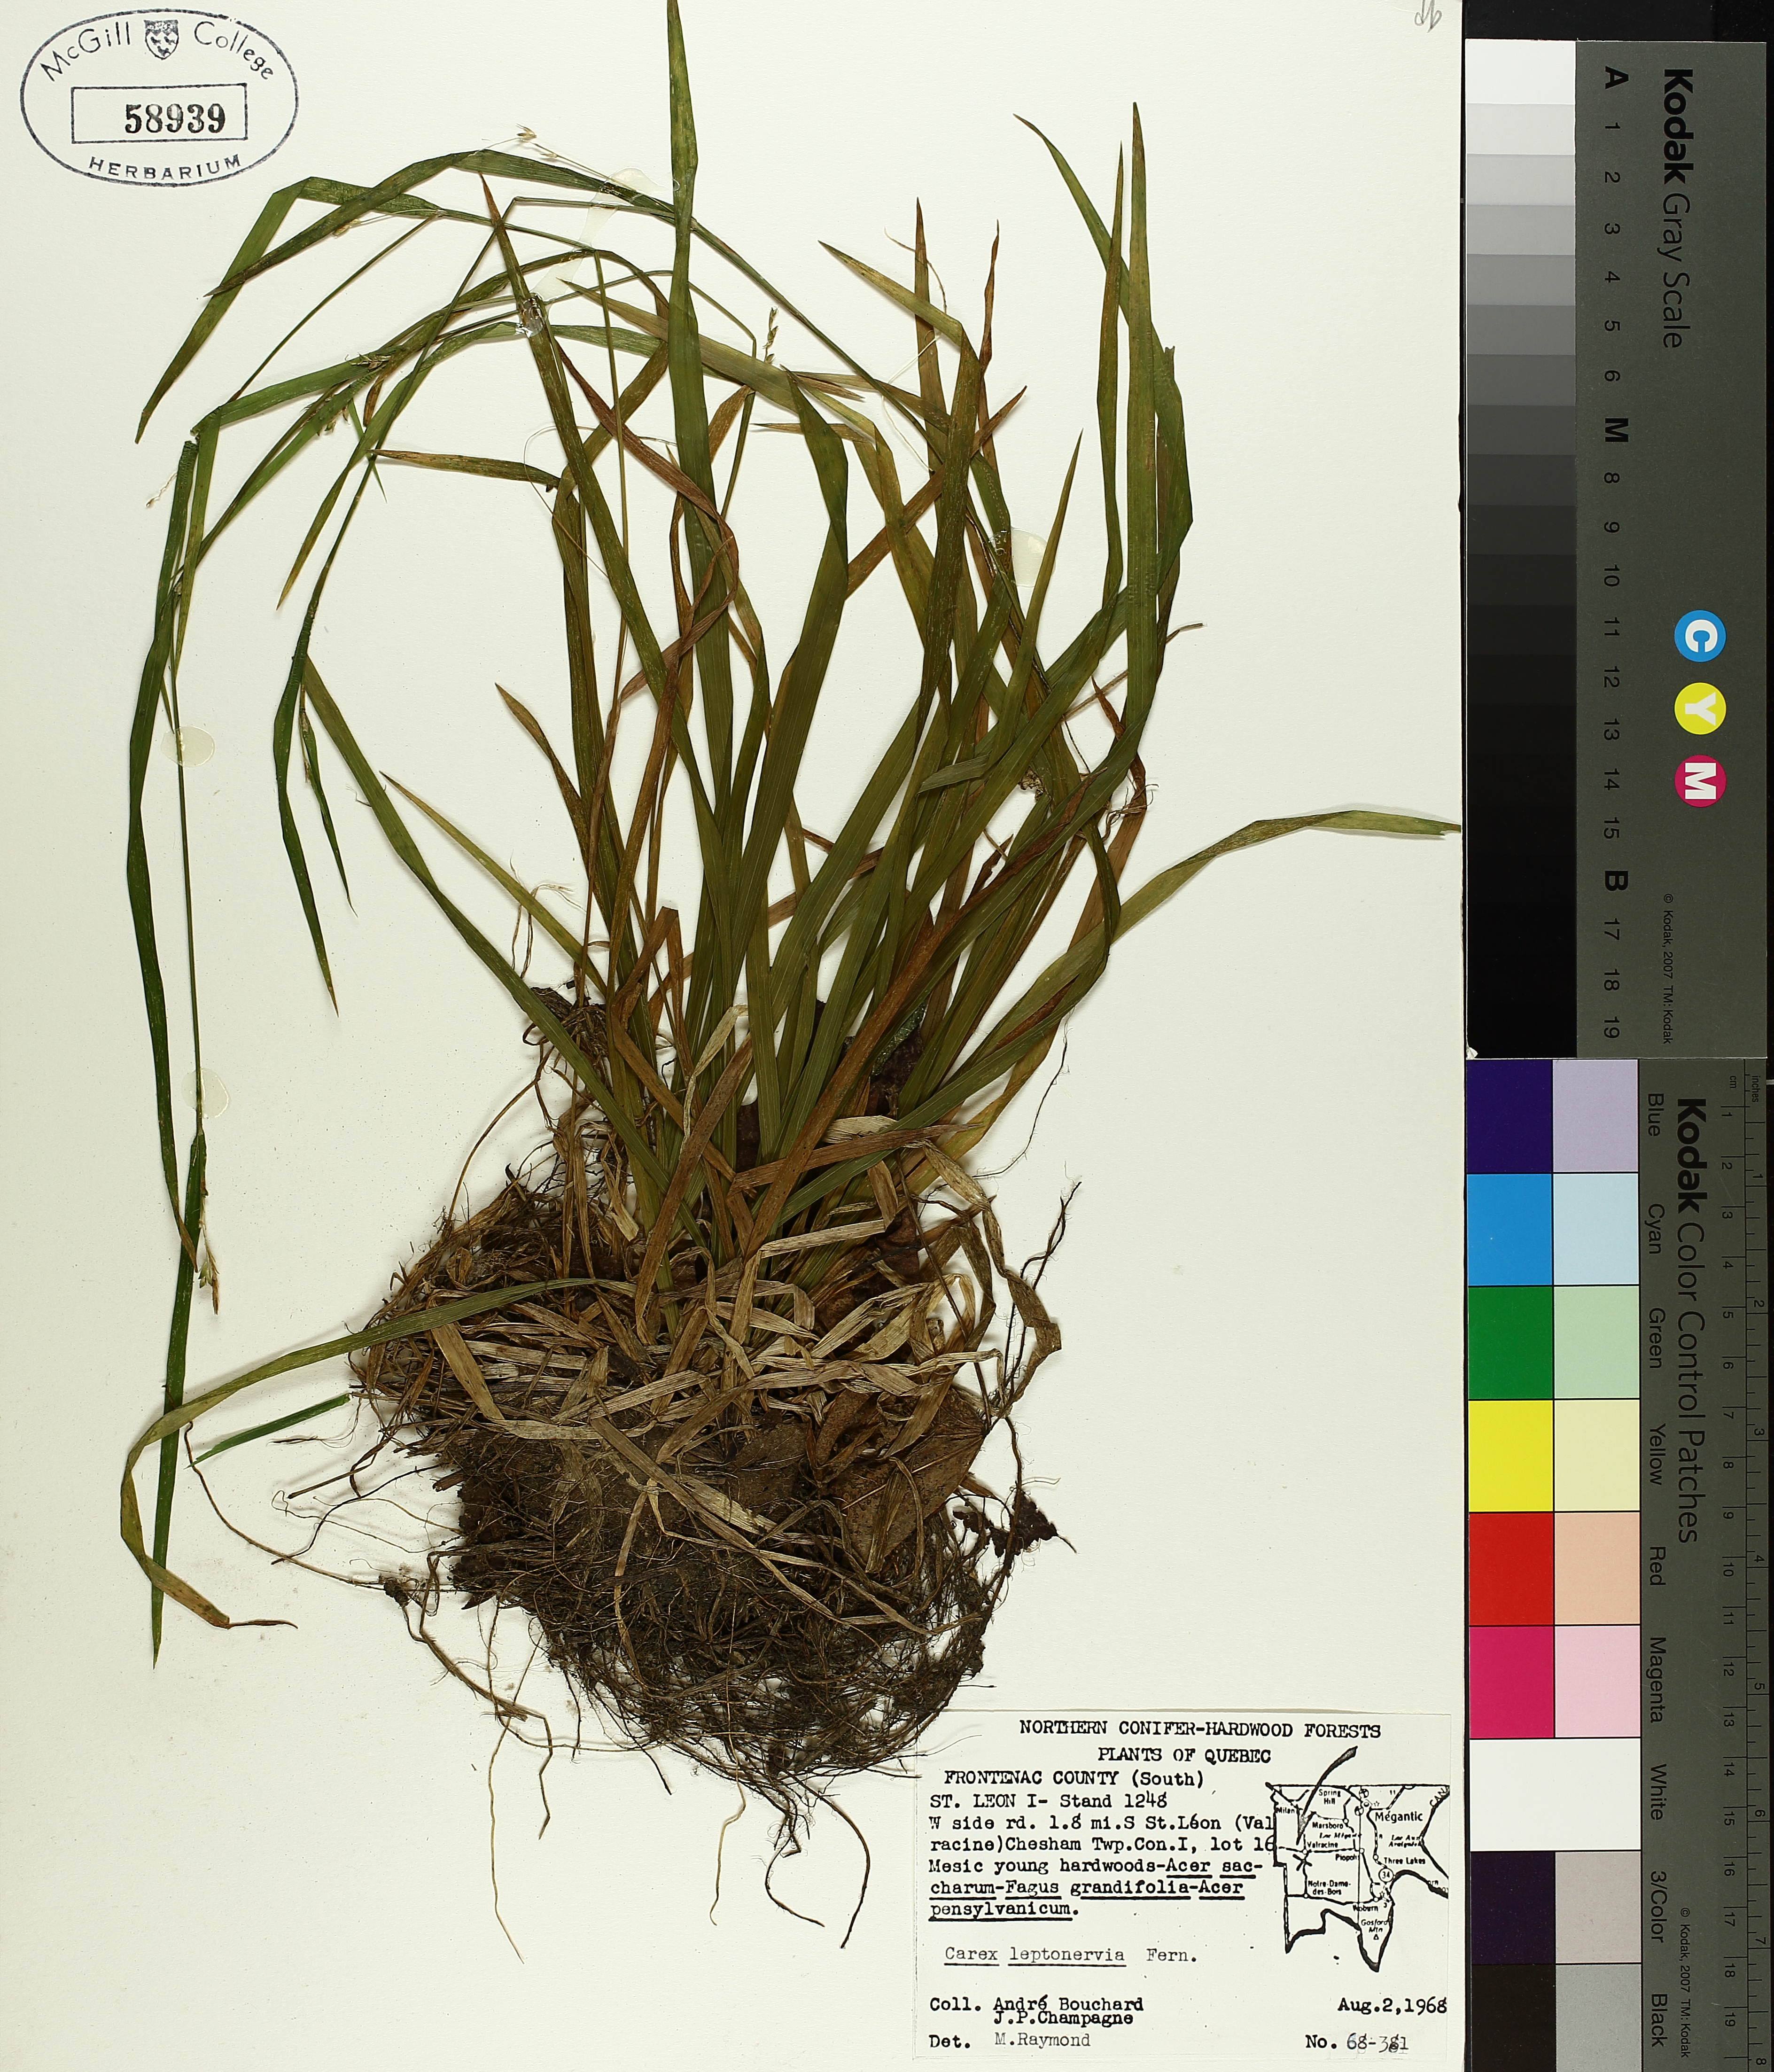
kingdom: Plantae
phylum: Tracheophyta
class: Liliopsida
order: Poales
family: Cyperaceae
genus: Carex
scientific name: Carex leptonervia
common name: Few-nerved wood sedge
